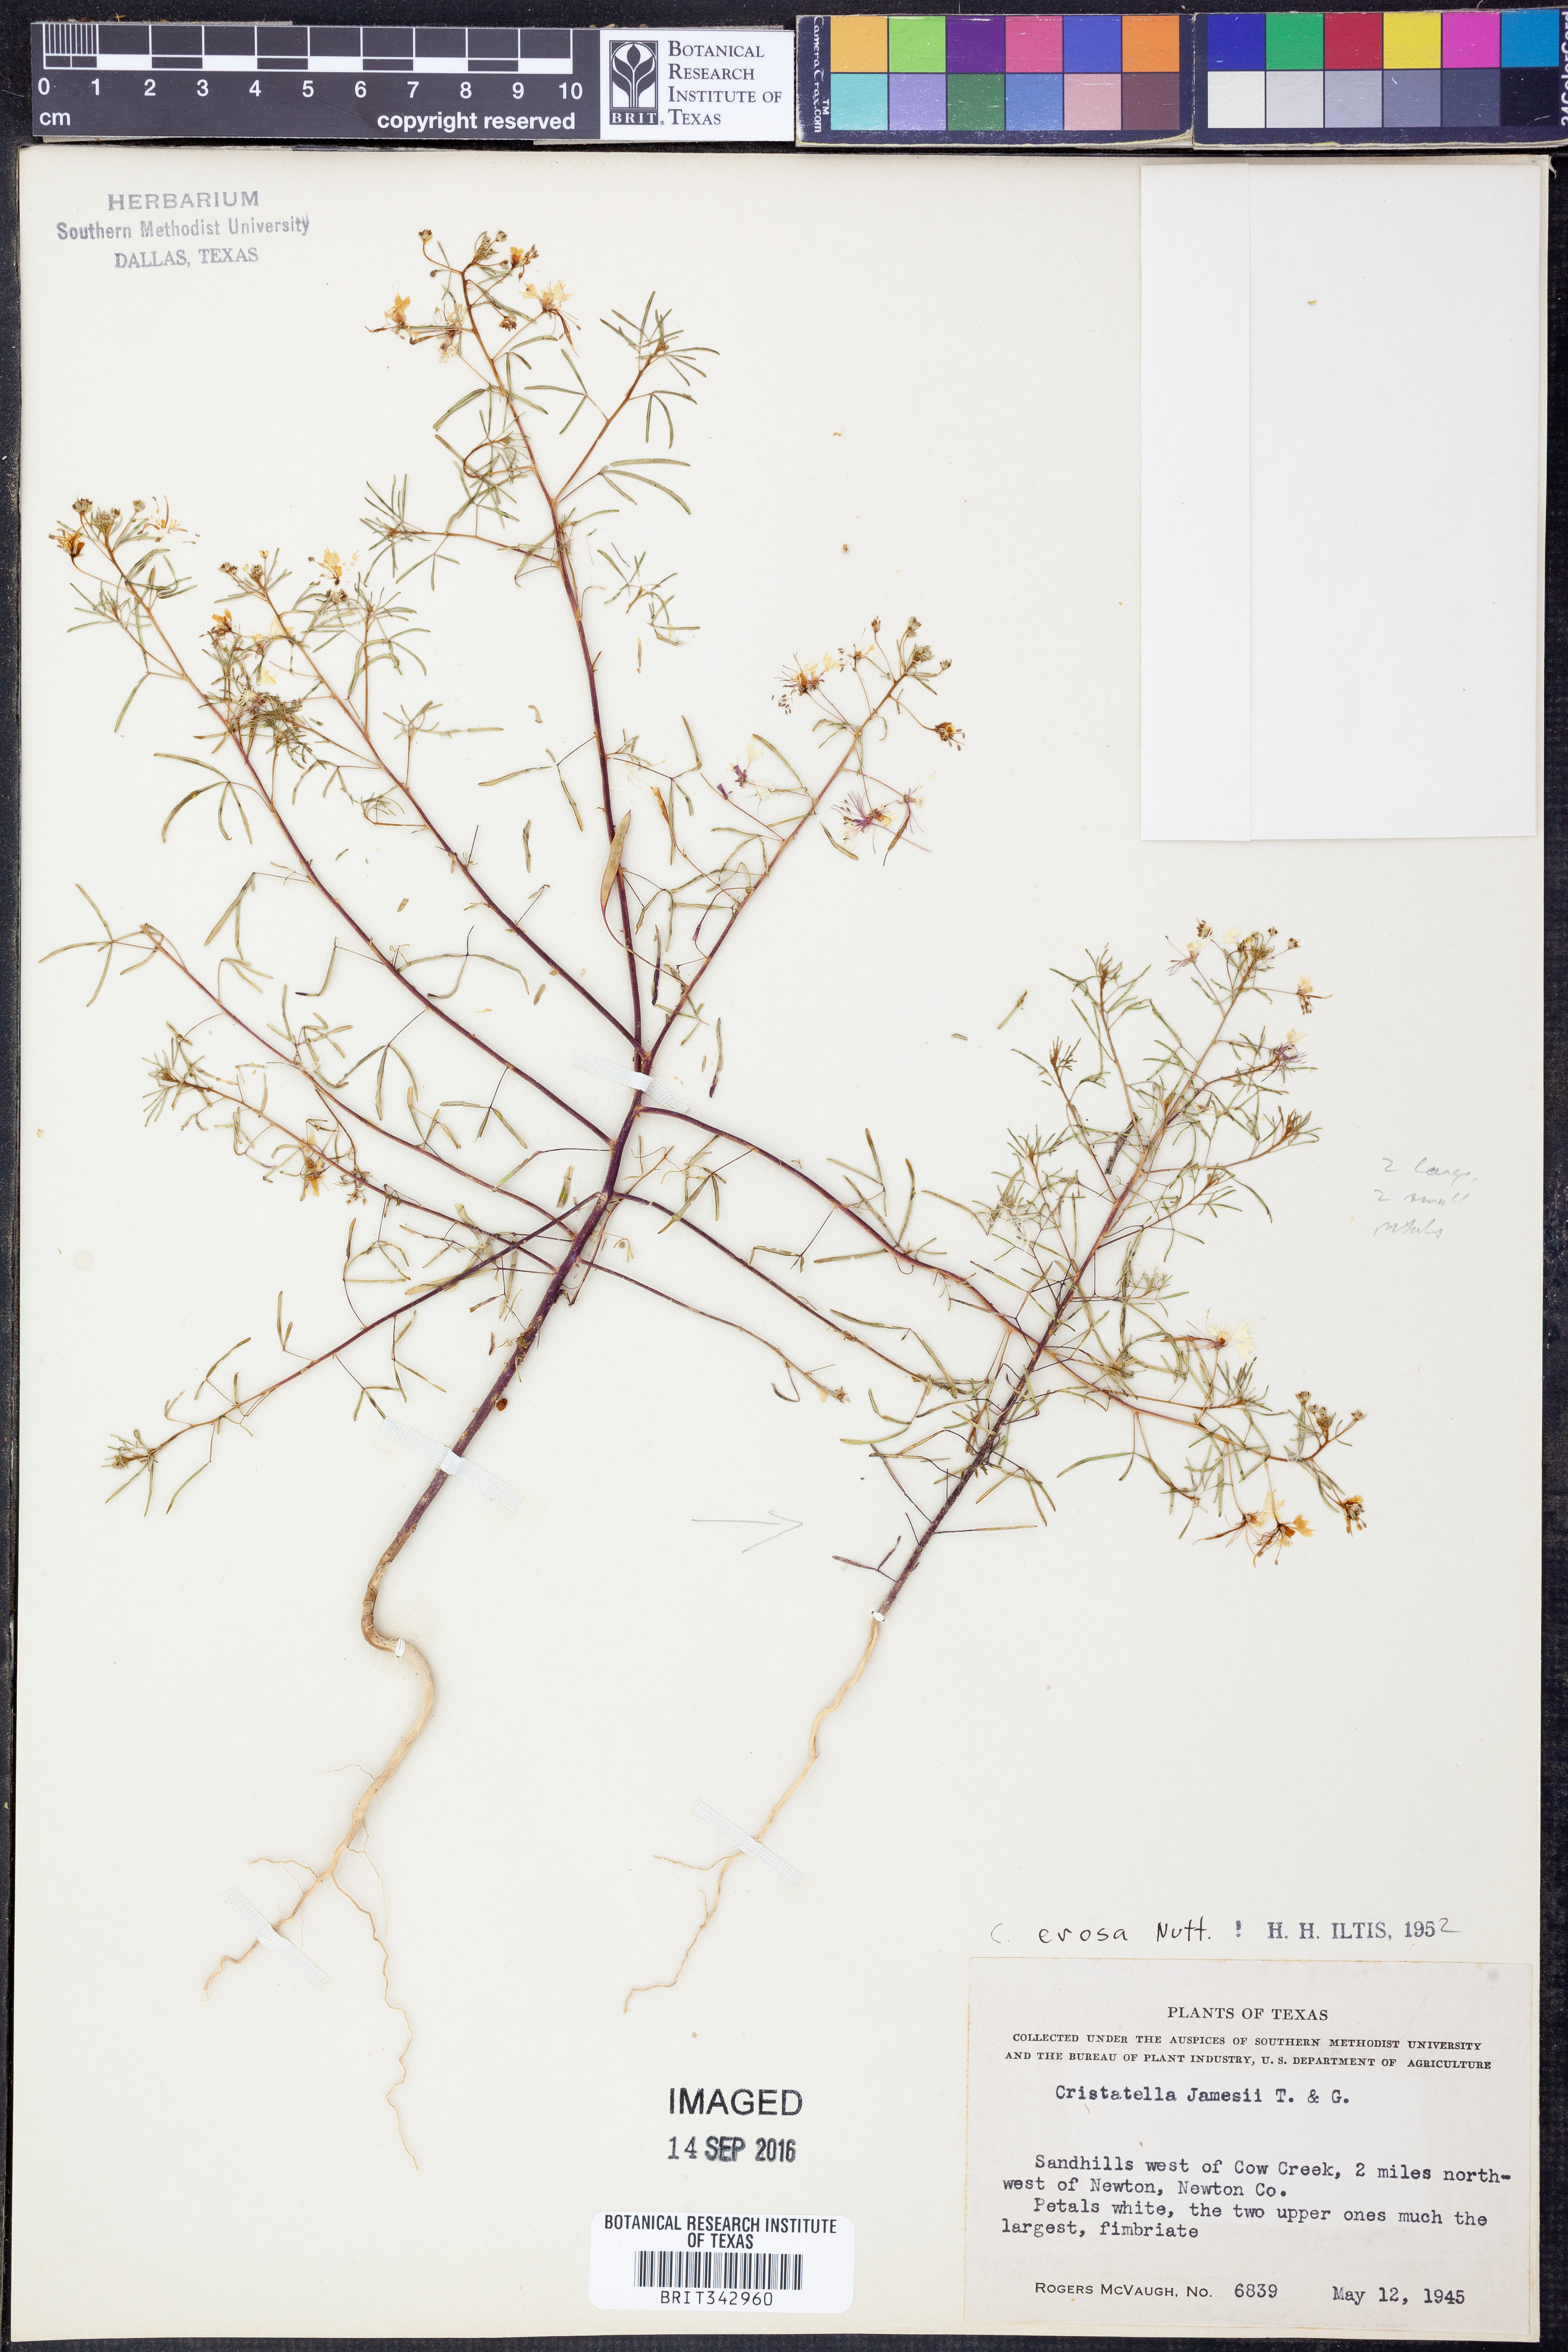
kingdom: Plantae
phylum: Tracheophyta
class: Magnoliopsida
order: Brassicales
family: Cleomaceae
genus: Polanisia
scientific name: Polanisia erosa
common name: Large clammyweed
